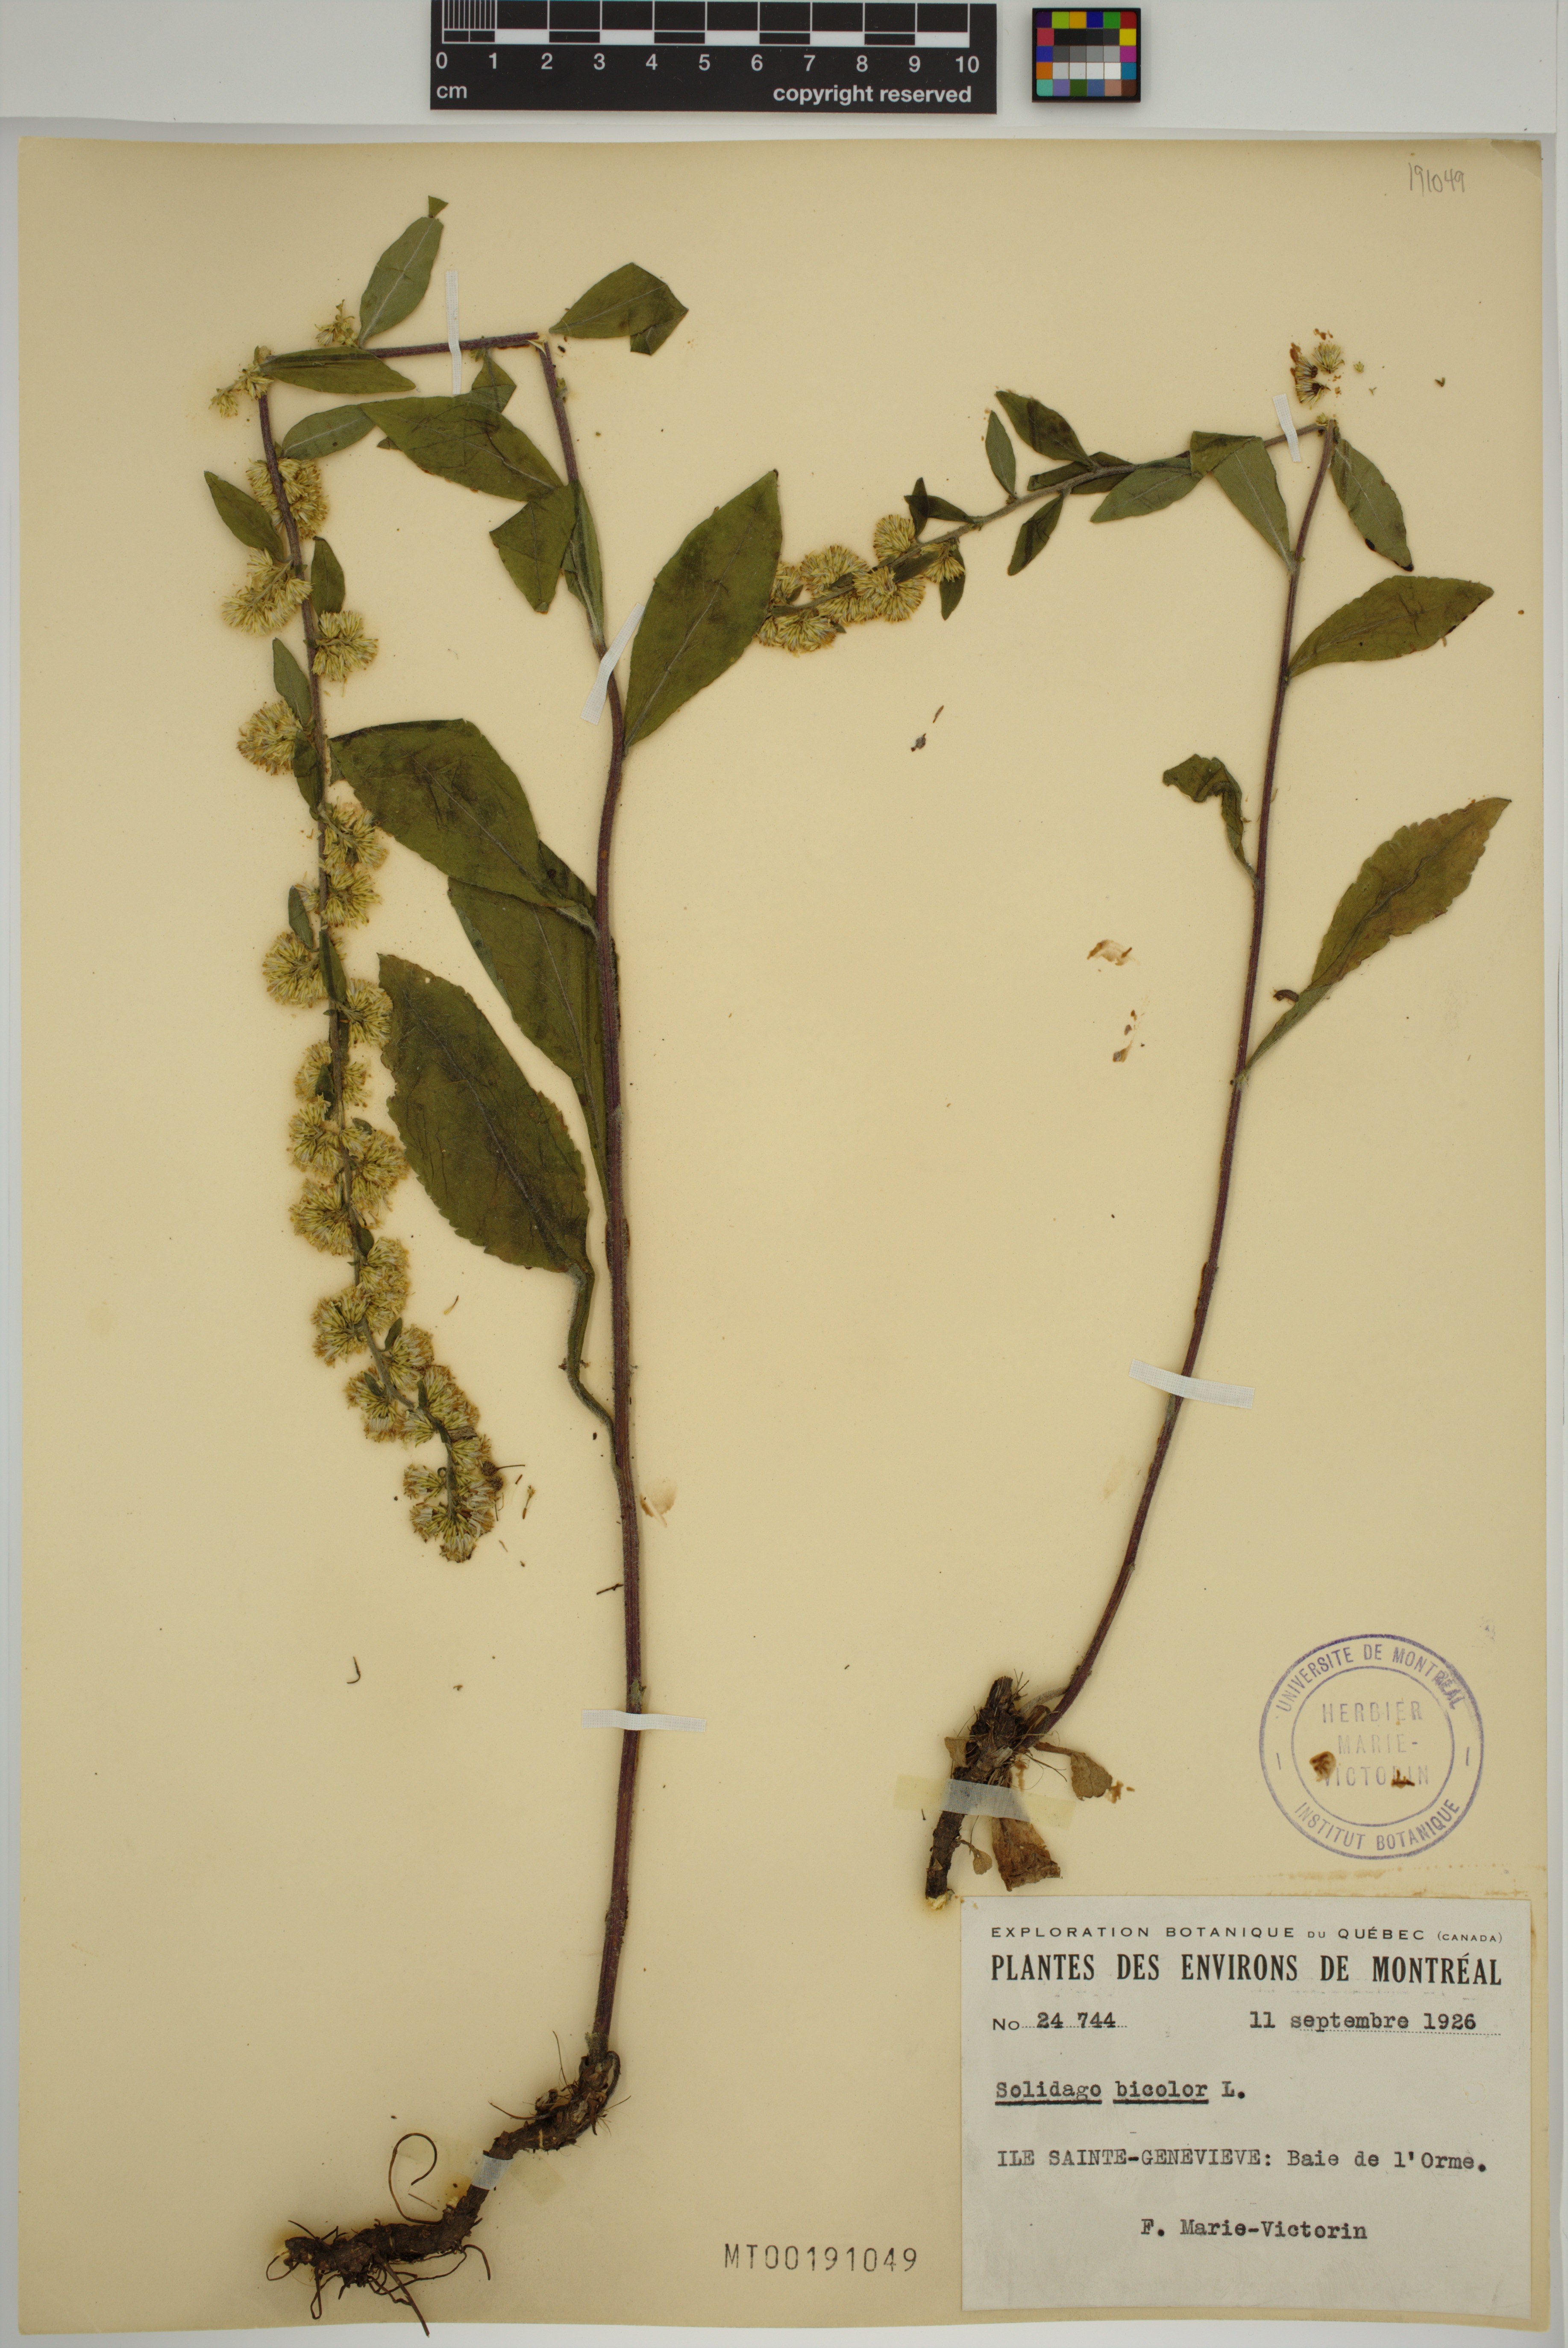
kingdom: Plantae
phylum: Tracheophyta
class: Magnoliopsida
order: Asterales
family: Asteraceae
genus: Solidago
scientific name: Solidago bicolor
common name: Silverrod
